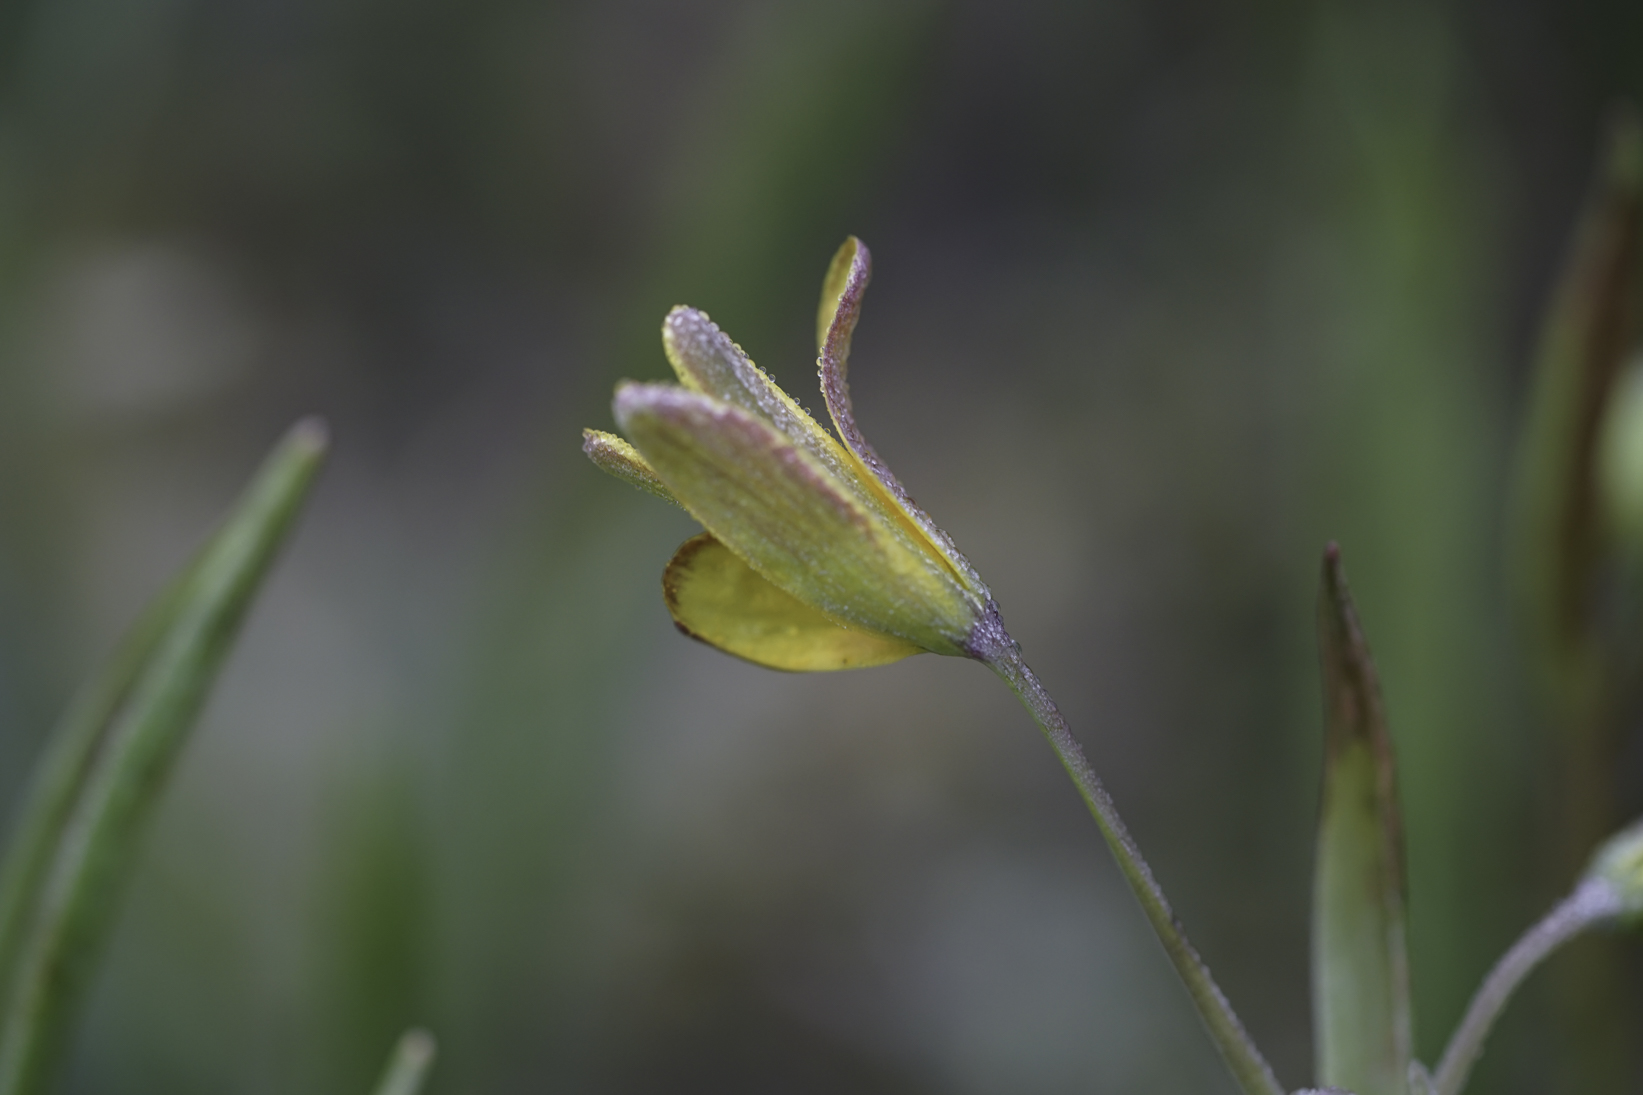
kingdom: Plantae
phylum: Tracheophyta
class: Liliopsida
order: Liliales
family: Liliaceae
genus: Gagea
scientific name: Gagea lutea
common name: Yellow star-of-bethlehem
